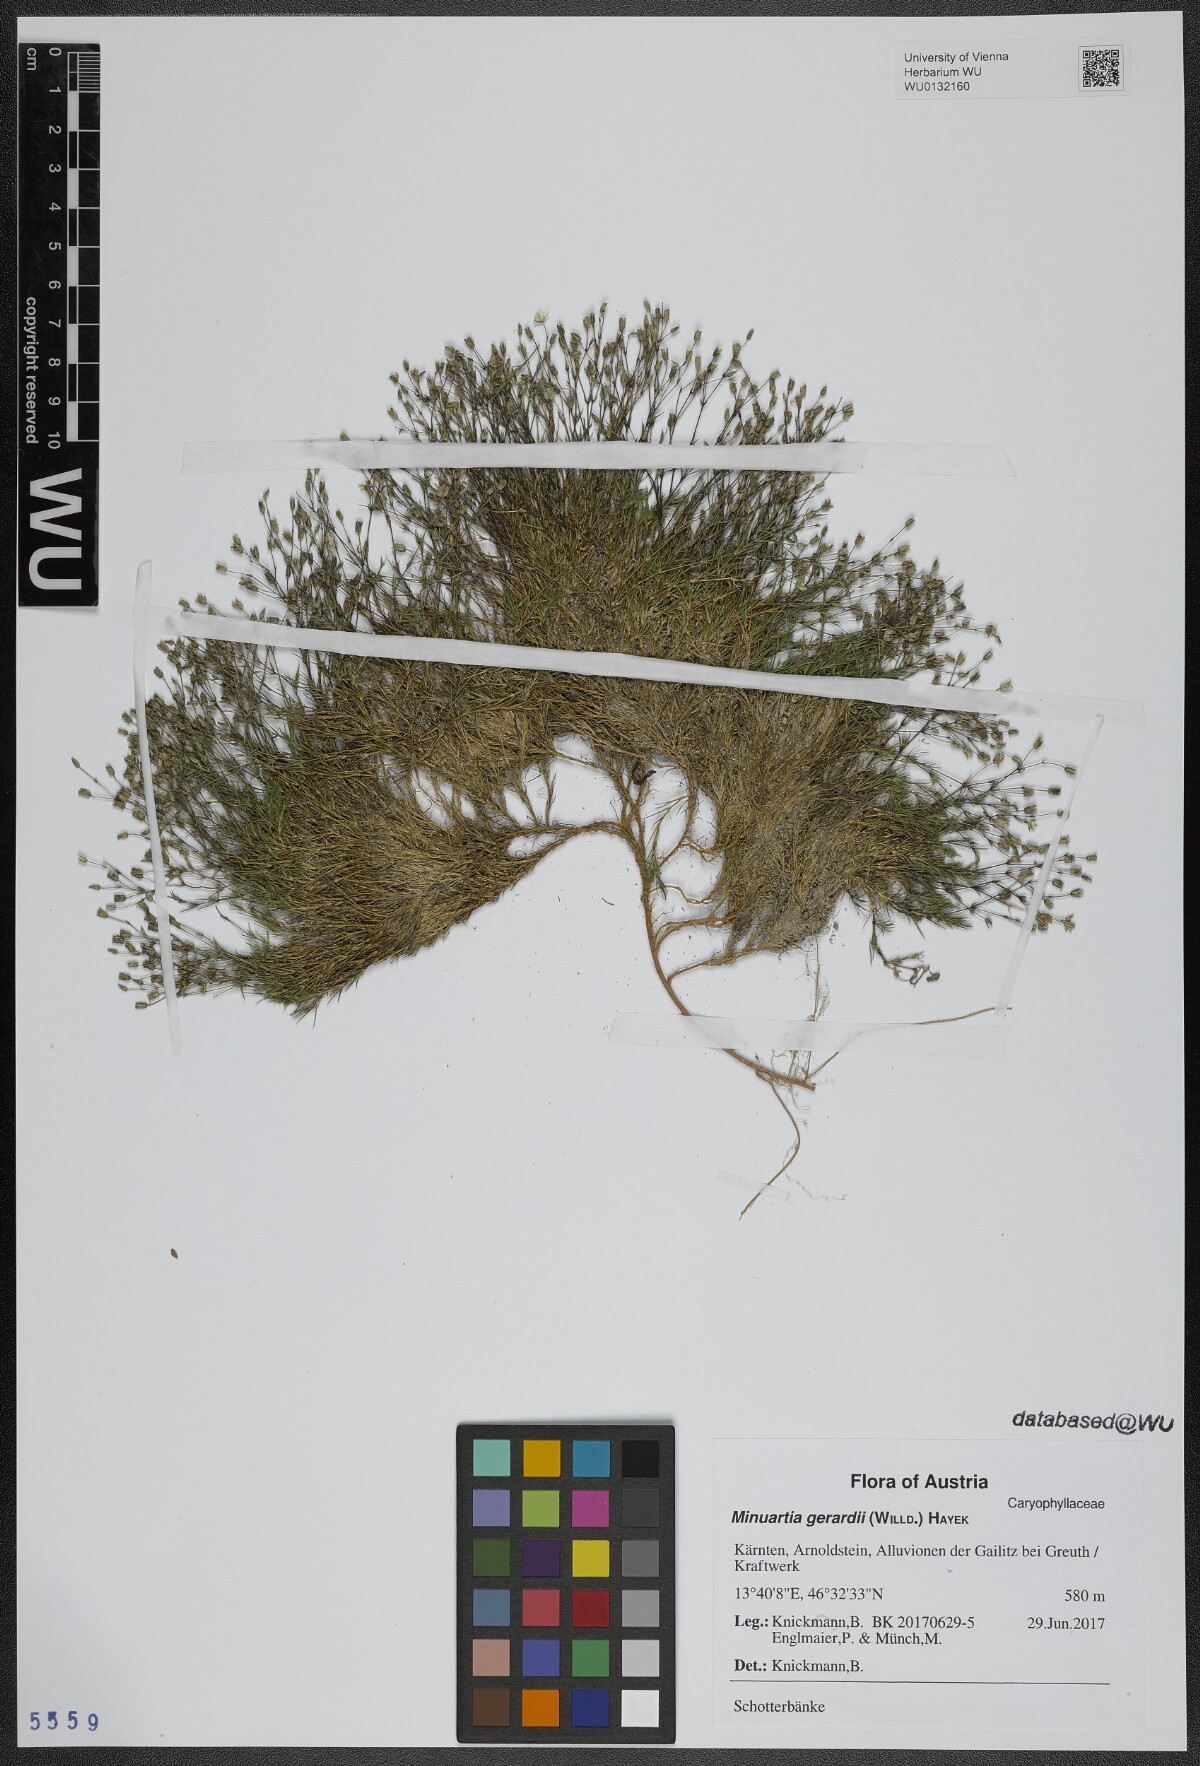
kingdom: Plantae
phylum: Tracheophyta
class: Magnoliopsida
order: Caryophyllales
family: Caryophyllaceae
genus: Sabulina
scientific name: Sabulina verna
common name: Spring sandwort
